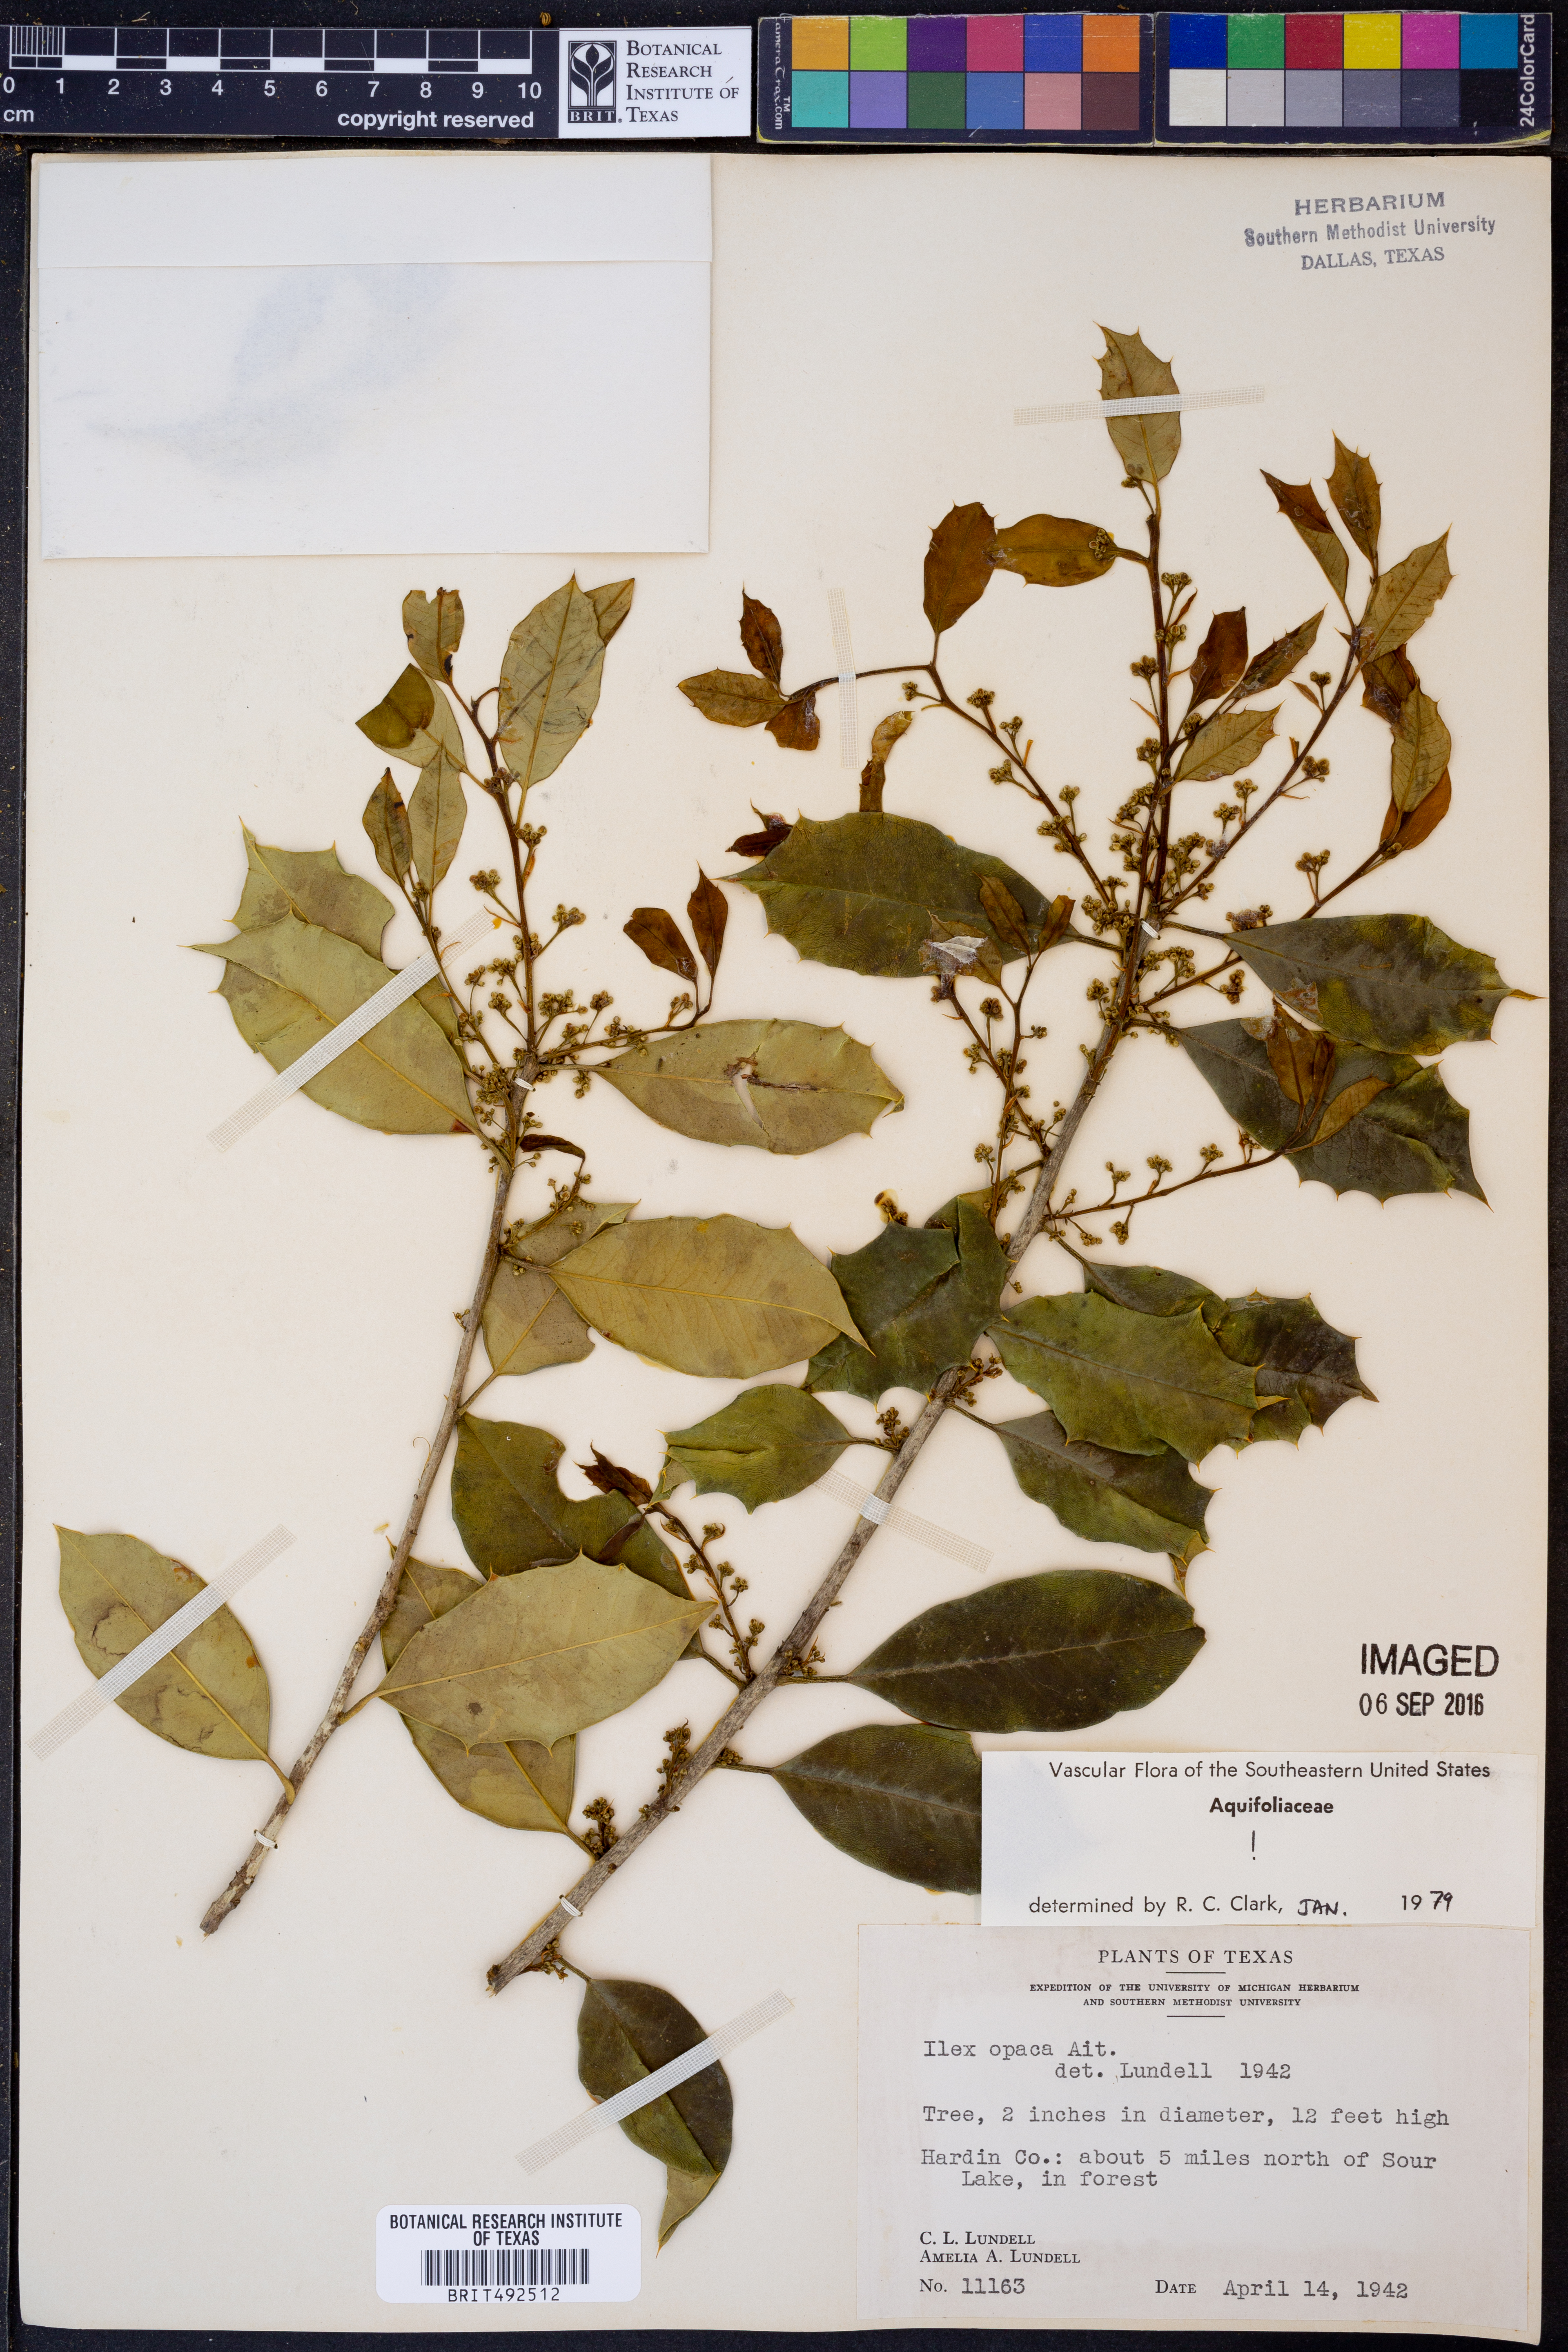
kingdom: Plantae
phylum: Tracheophyta
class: Magnoliopsida
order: Aquifoliales
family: Aquifoliaceae
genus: Ilex
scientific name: Ilex opaca
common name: American holly
